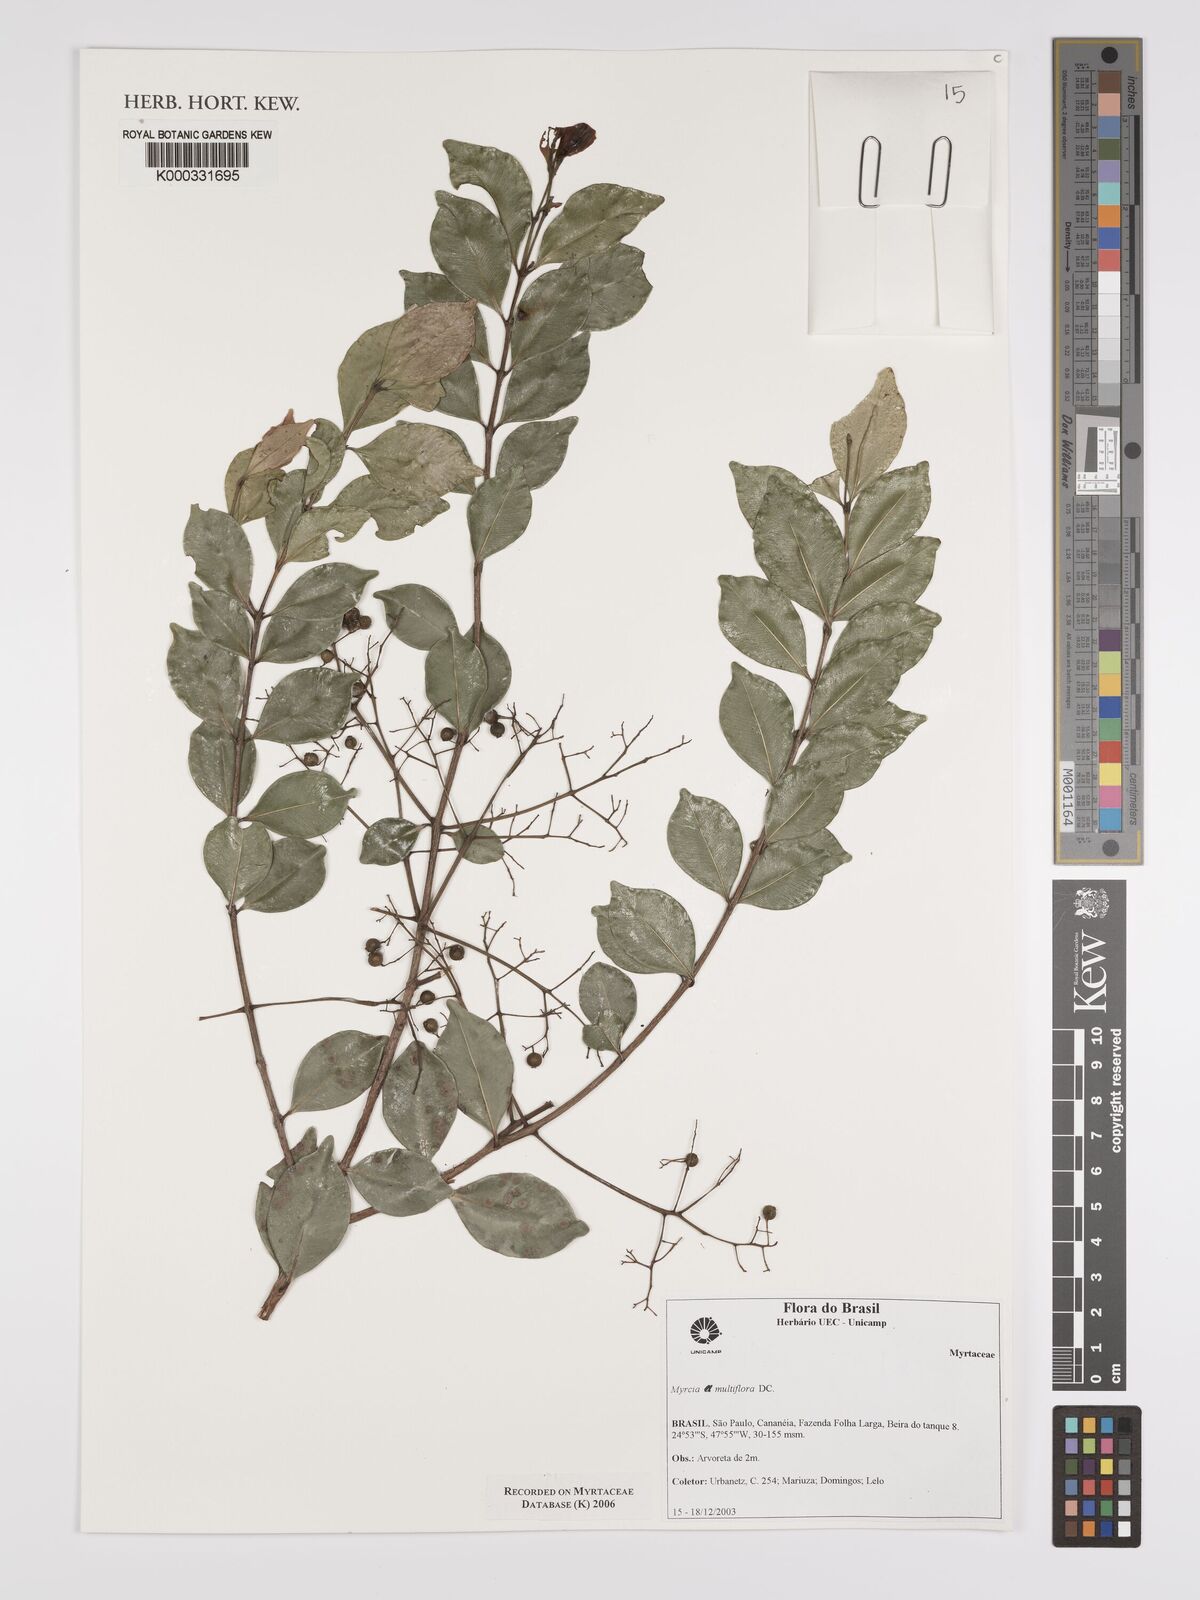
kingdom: Plantae
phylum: Tracheophyta
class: Magnoliopsida
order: Myrtales
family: Myrtaceae
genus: Myrcia
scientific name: Myrcia multiflora
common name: Pedra hume
